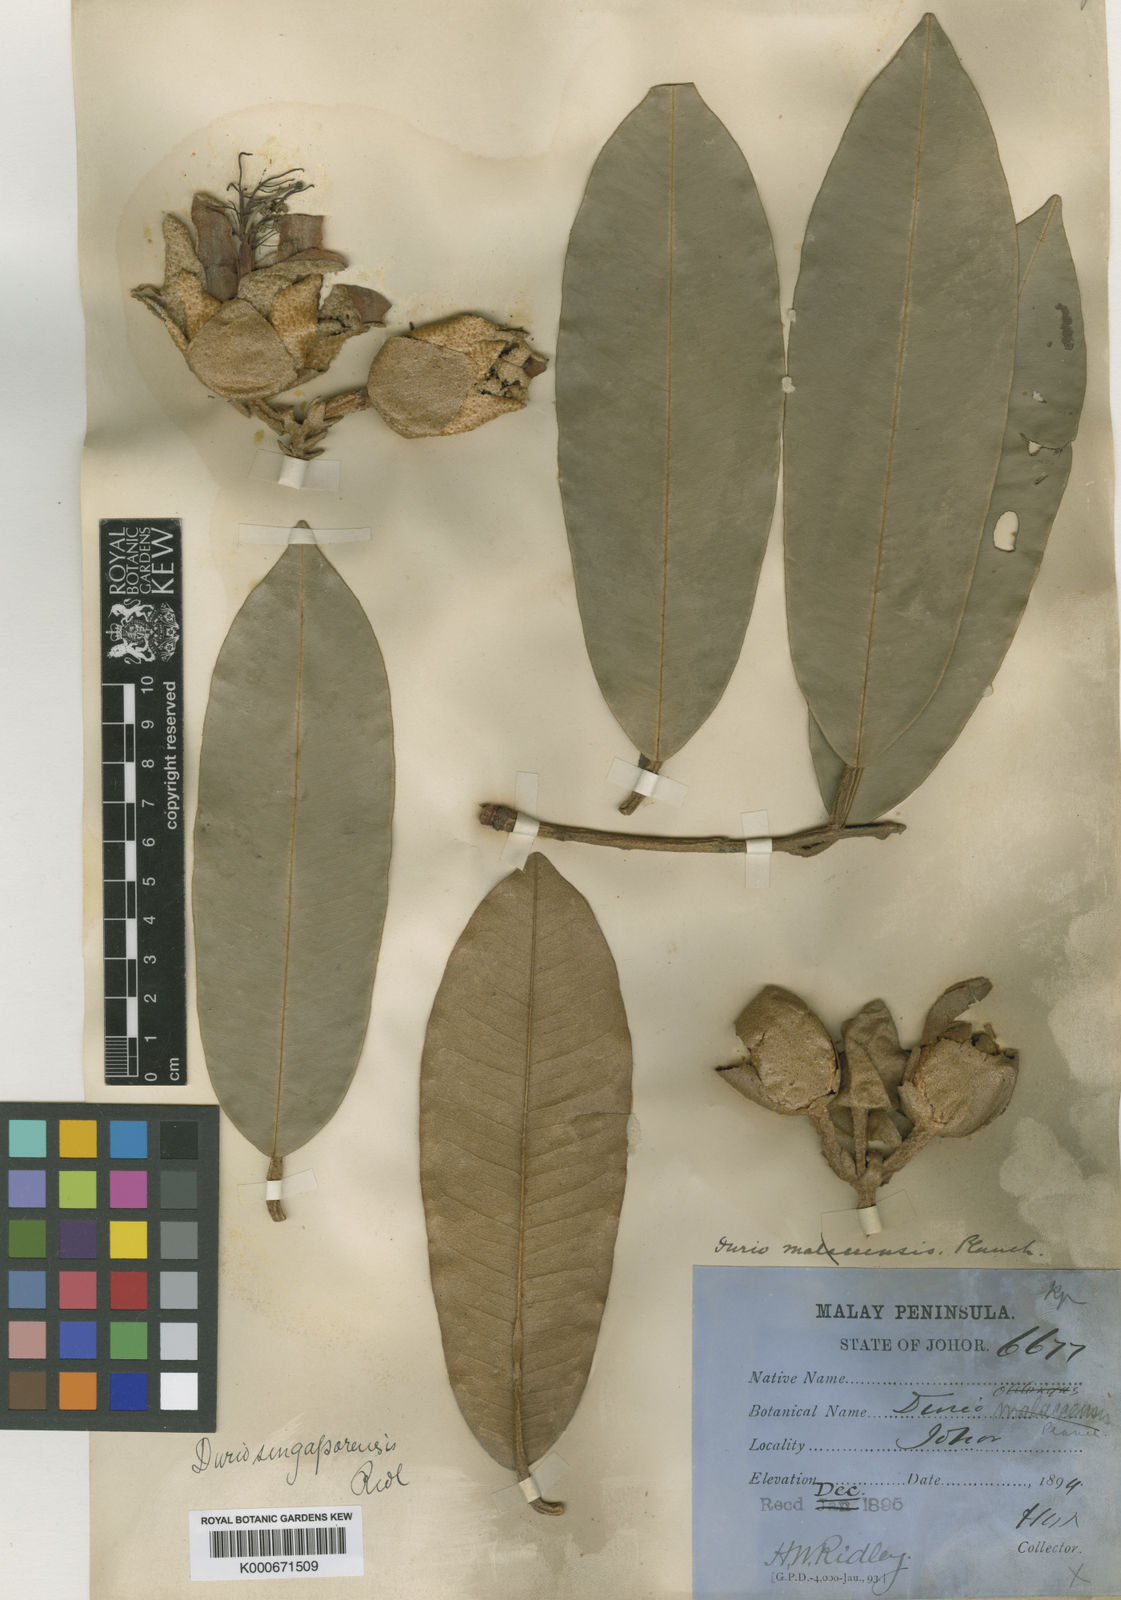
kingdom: Plantae
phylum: Tracheophyta
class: Magnoliopsida
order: Malvales
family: Malvaceae
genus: Durio
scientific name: Durio singaporensis
